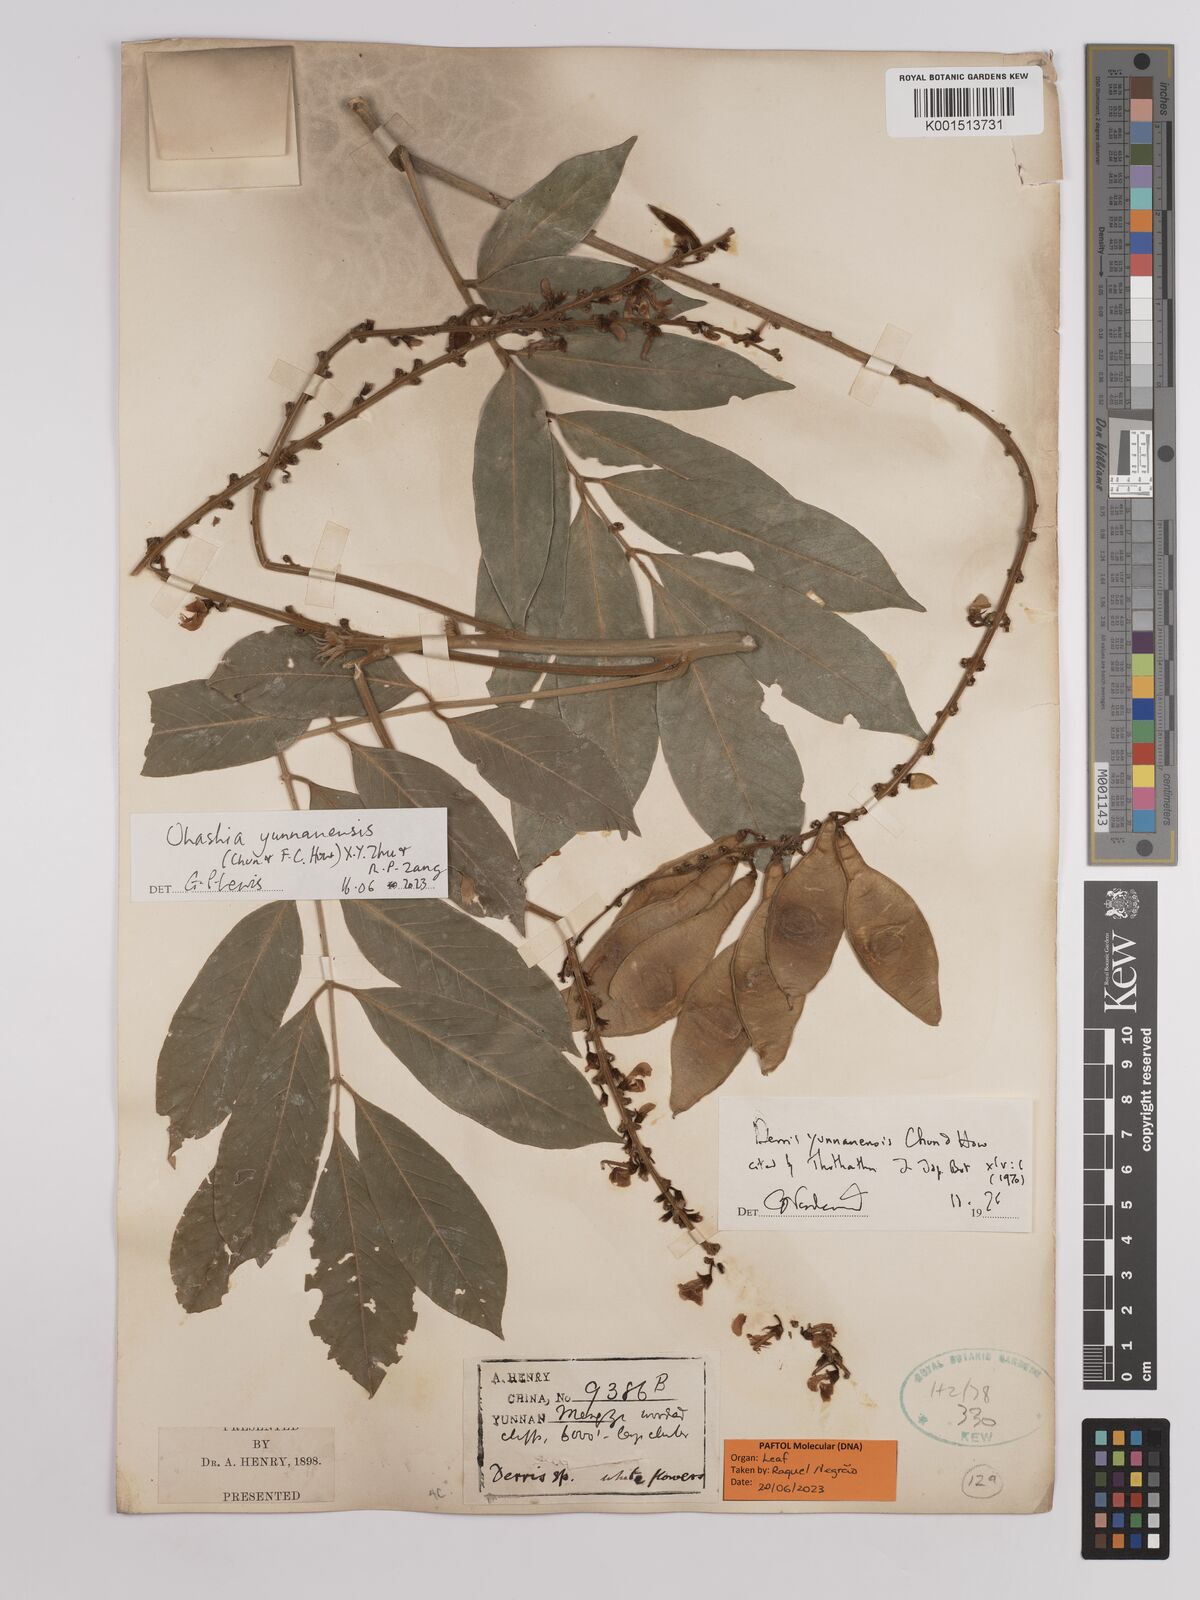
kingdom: Plantae
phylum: Tracheophyta
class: Magnoliopsida
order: Fabales
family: Fabaceae
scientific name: Fabaceae
